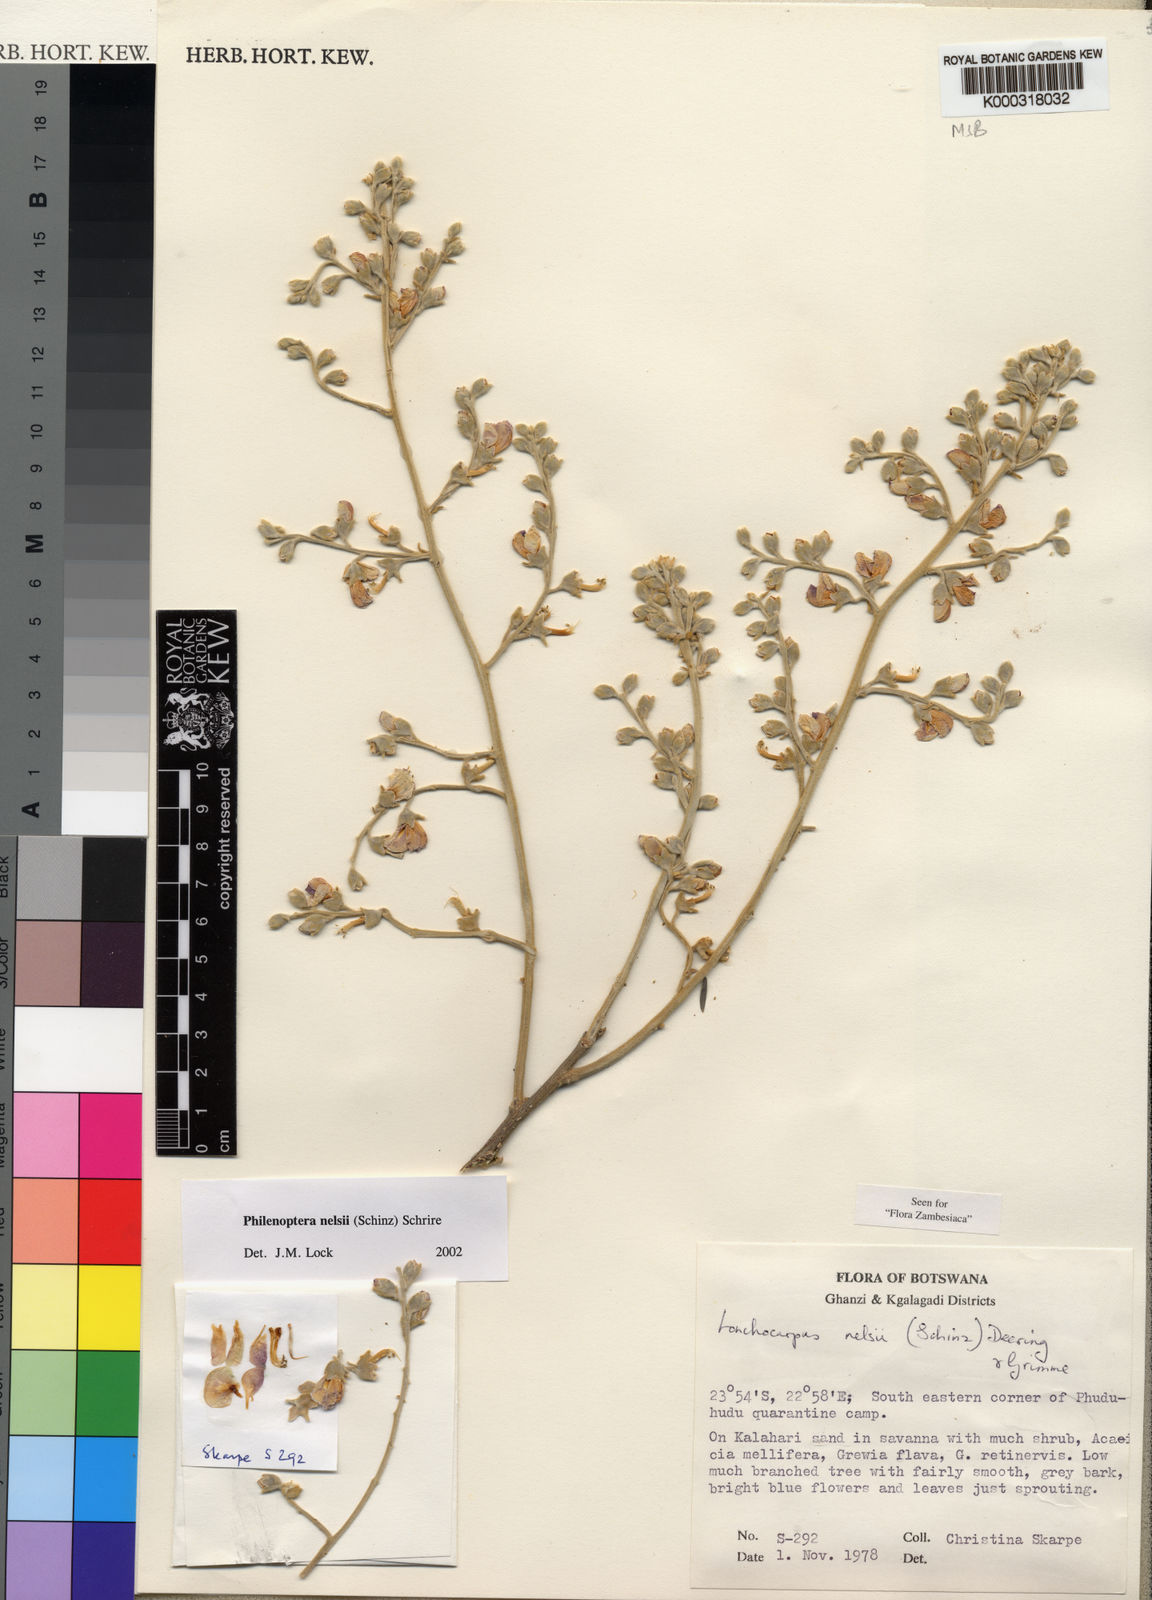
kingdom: Plantae
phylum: Tracheophyta
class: Magnoliopsida
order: Fabales
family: Fabaceae
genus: Philenoptera
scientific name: Philenoptera nelsii
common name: Kalahari apple-leaf
